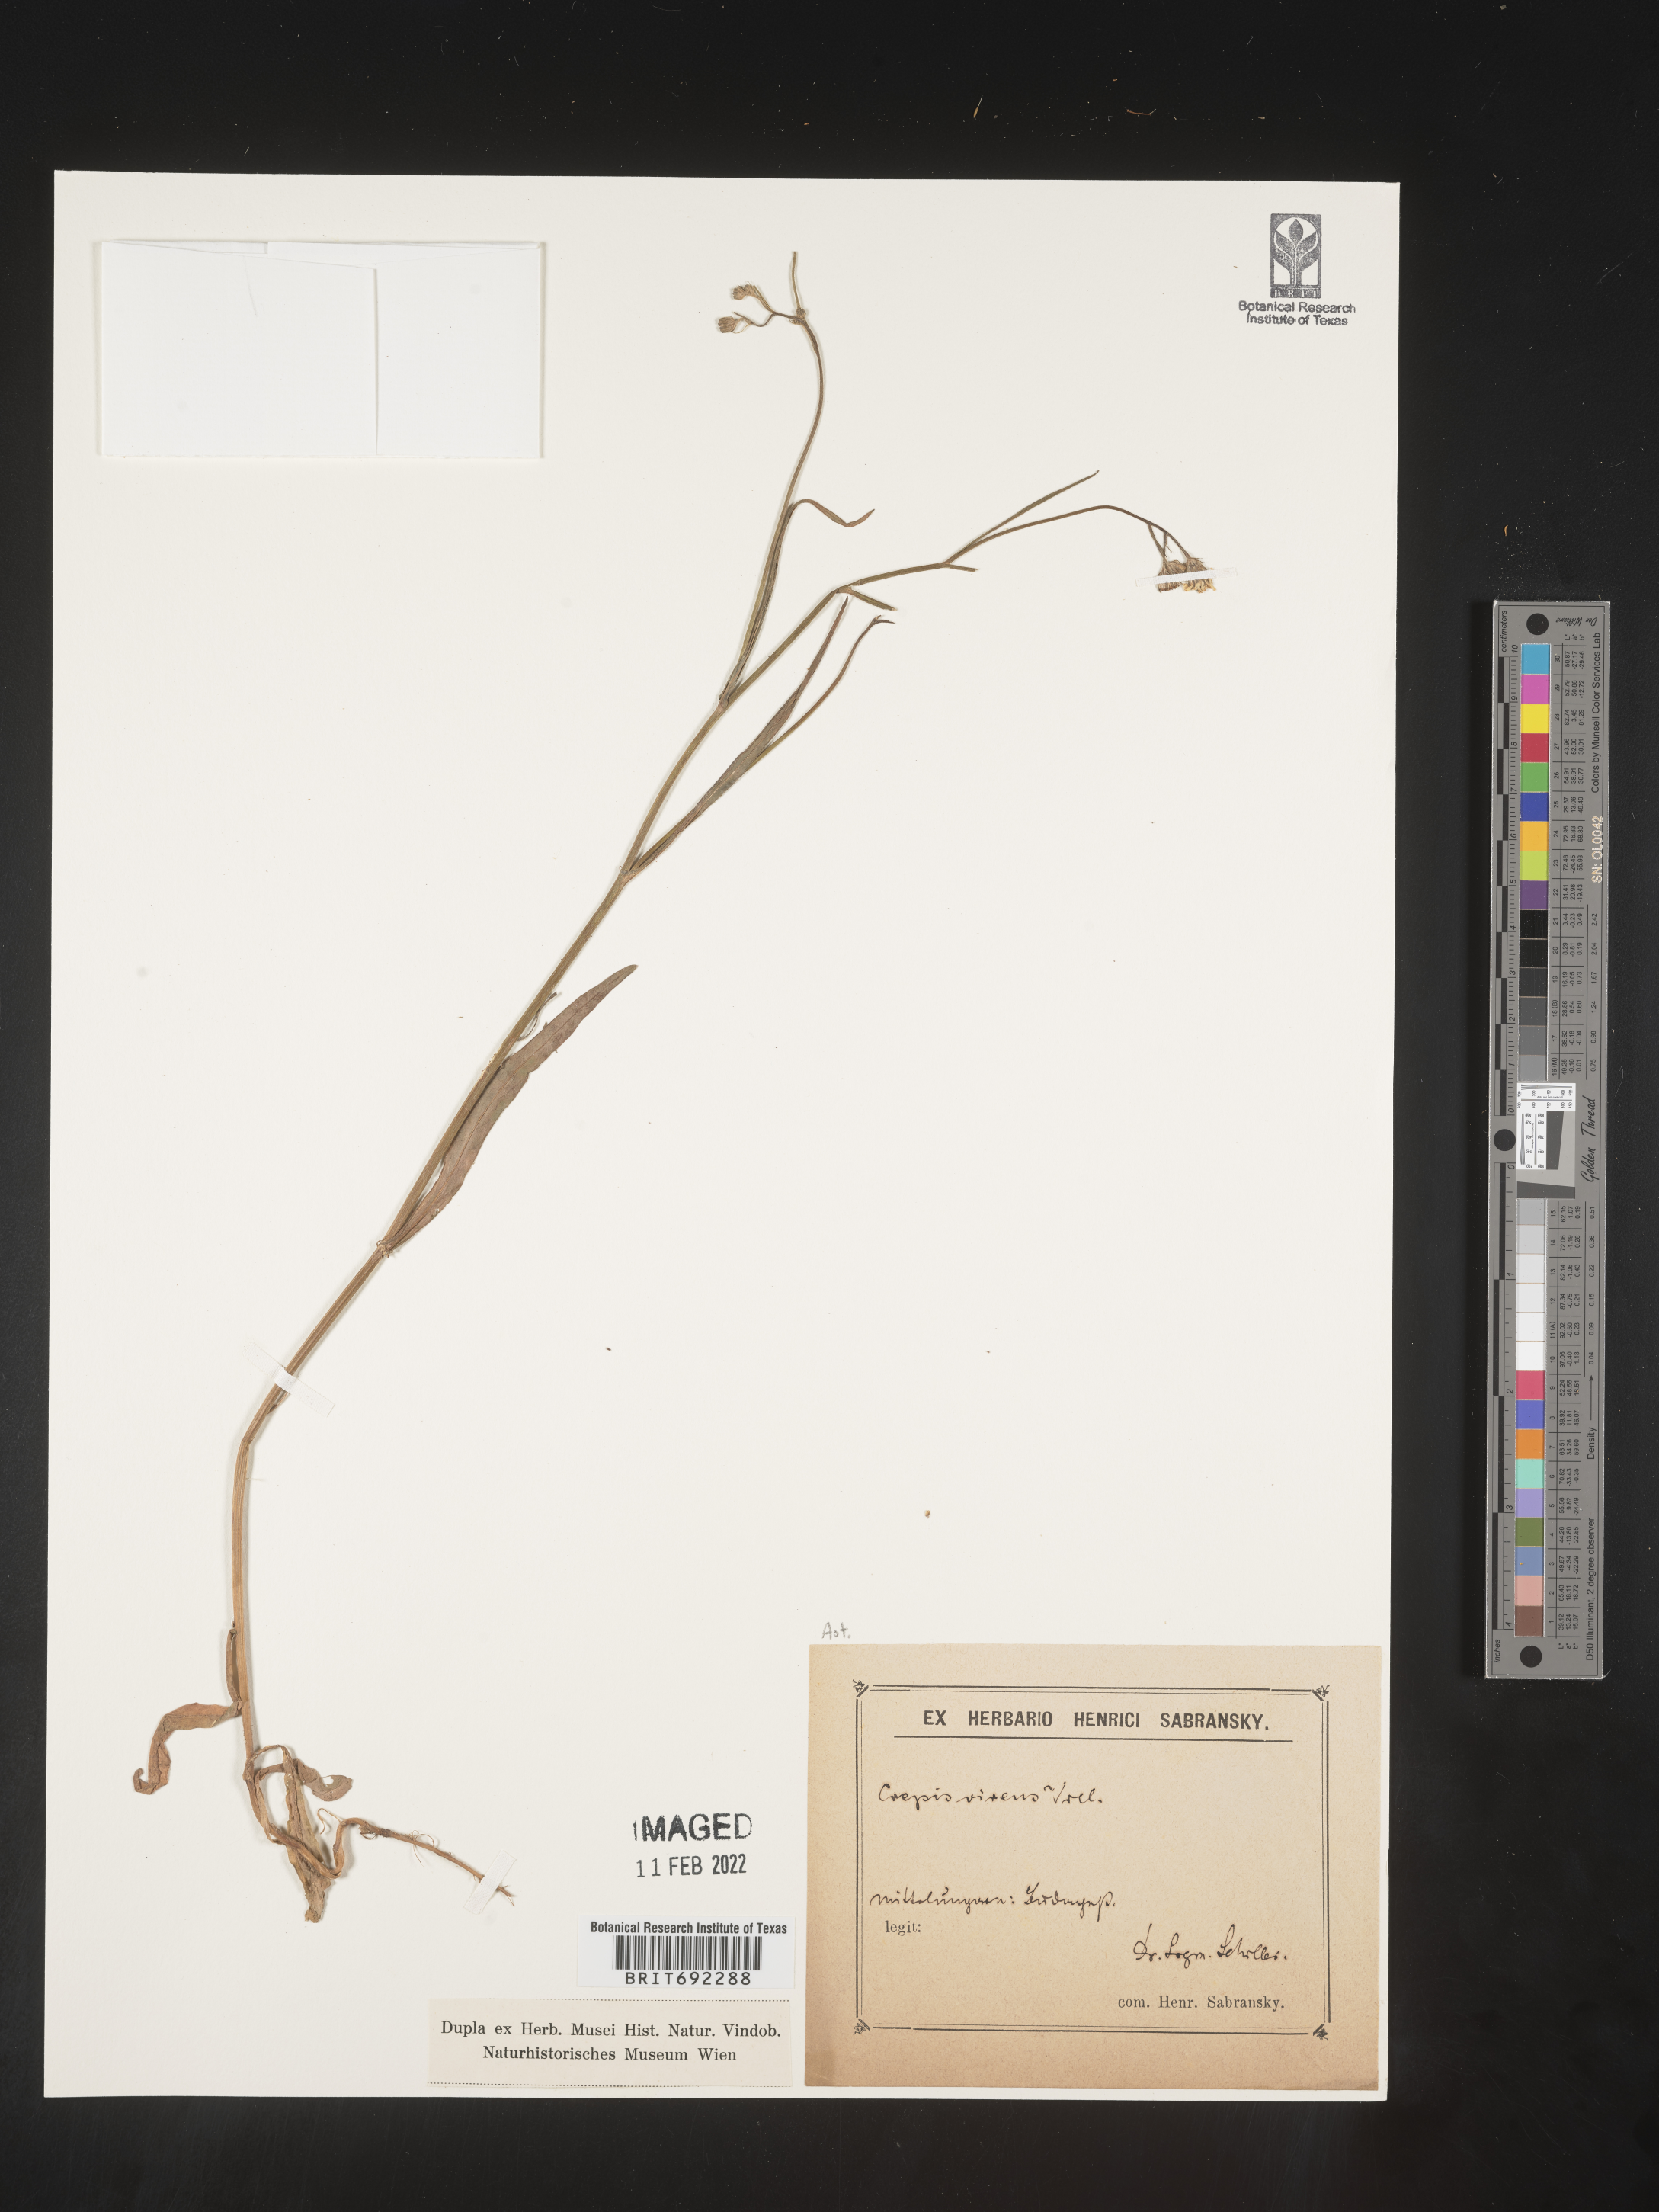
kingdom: Plantae
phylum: Tracheophyta
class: Magnoliopsida
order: Asterales
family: Asteraceae
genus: Crepis
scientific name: Crepis
